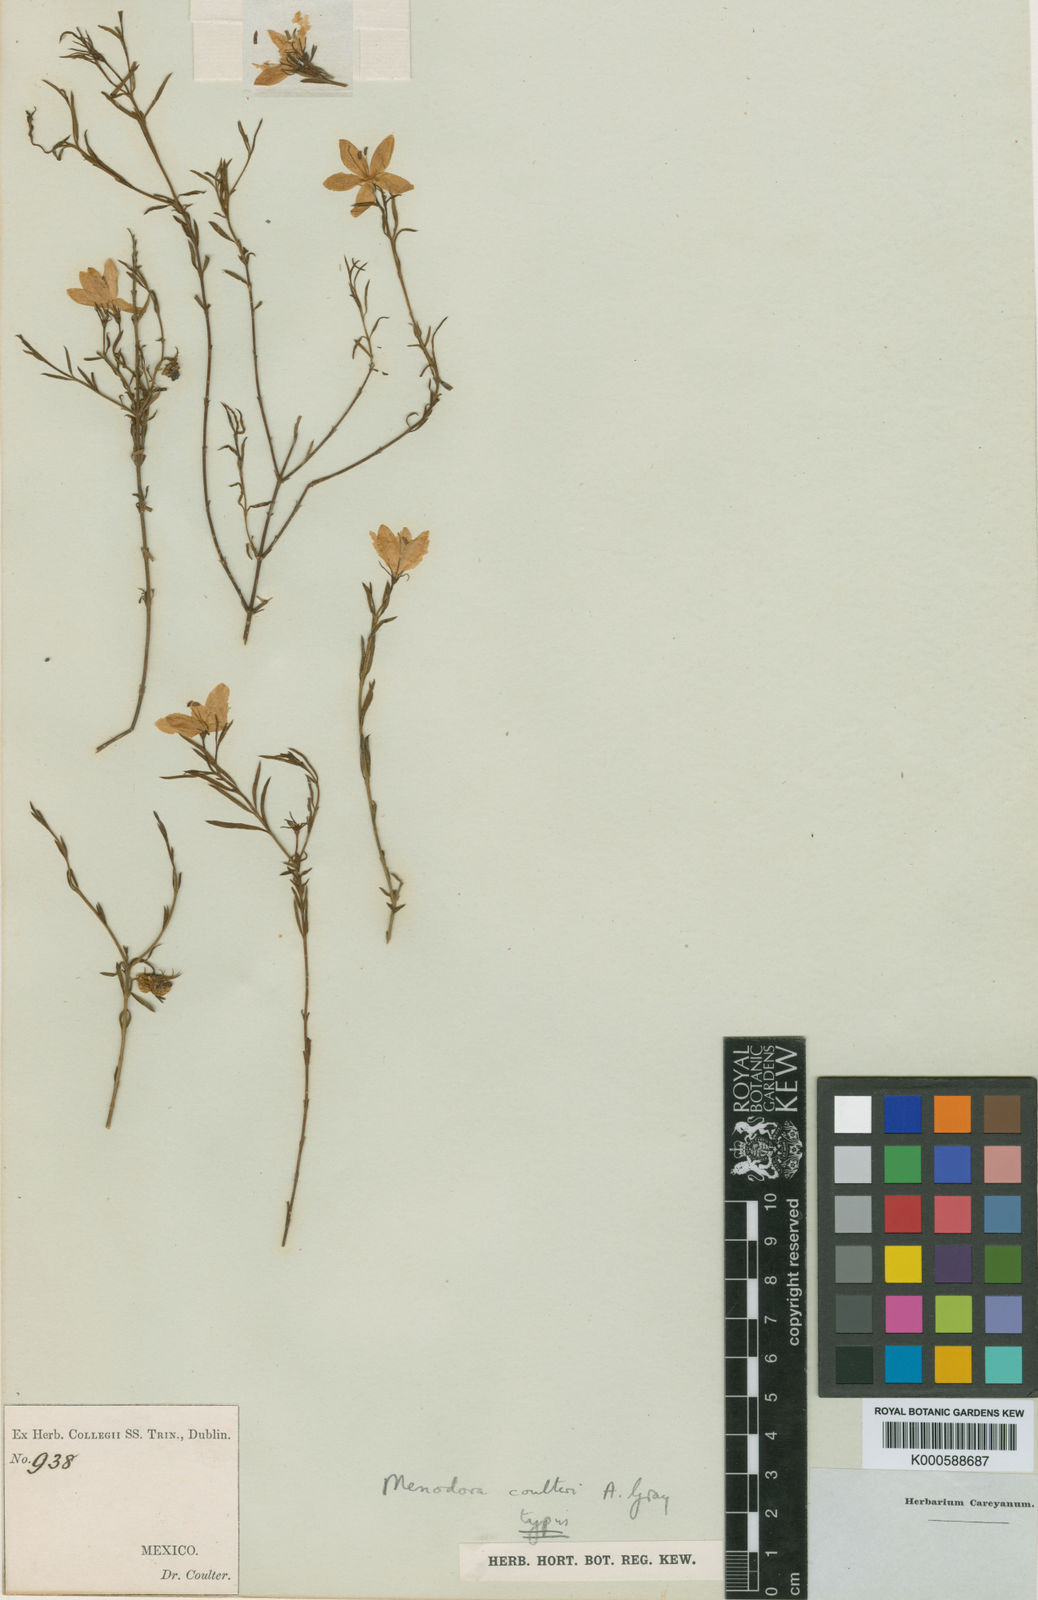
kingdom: Plantae
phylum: Tracheophyta
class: Magnoliopsida
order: Lamiales
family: Oleaceae
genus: Menodora
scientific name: Menodora coulteri
